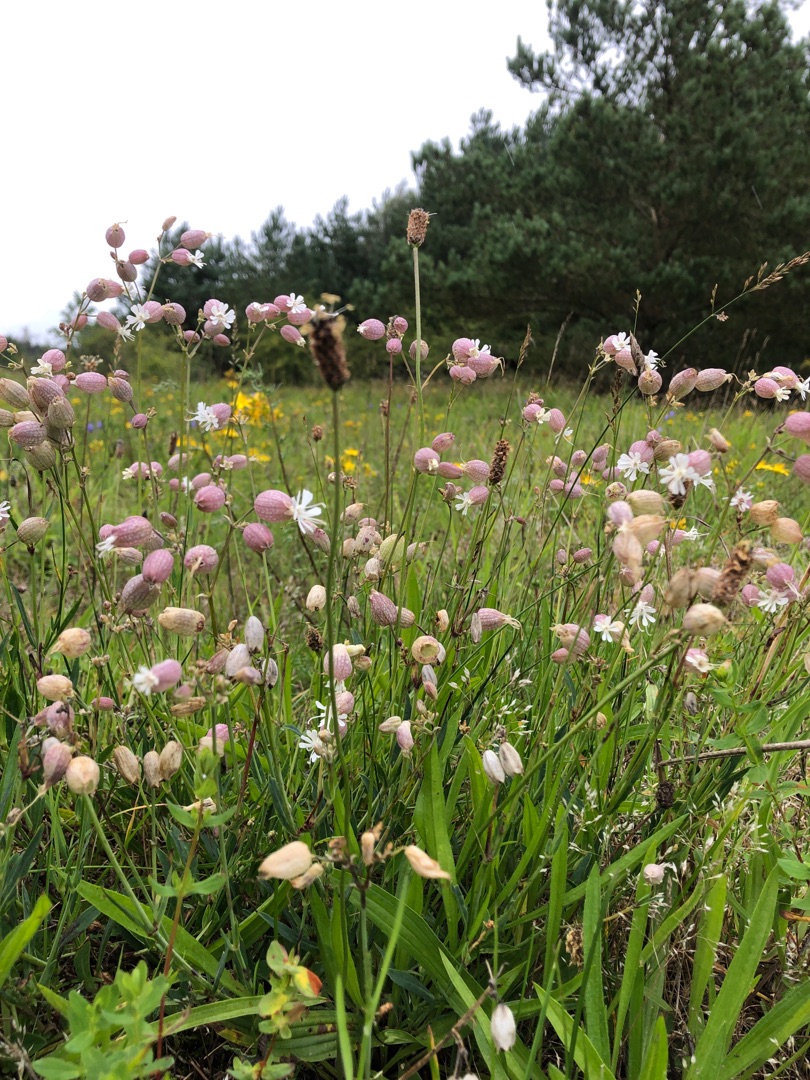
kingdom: Plantae
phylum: Tracheophyta
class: Magnoliopsida
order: Caryophyllales
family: Caryophyllaceae
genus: Silene
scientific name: Silene vulgaris
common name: Blæresmælde
